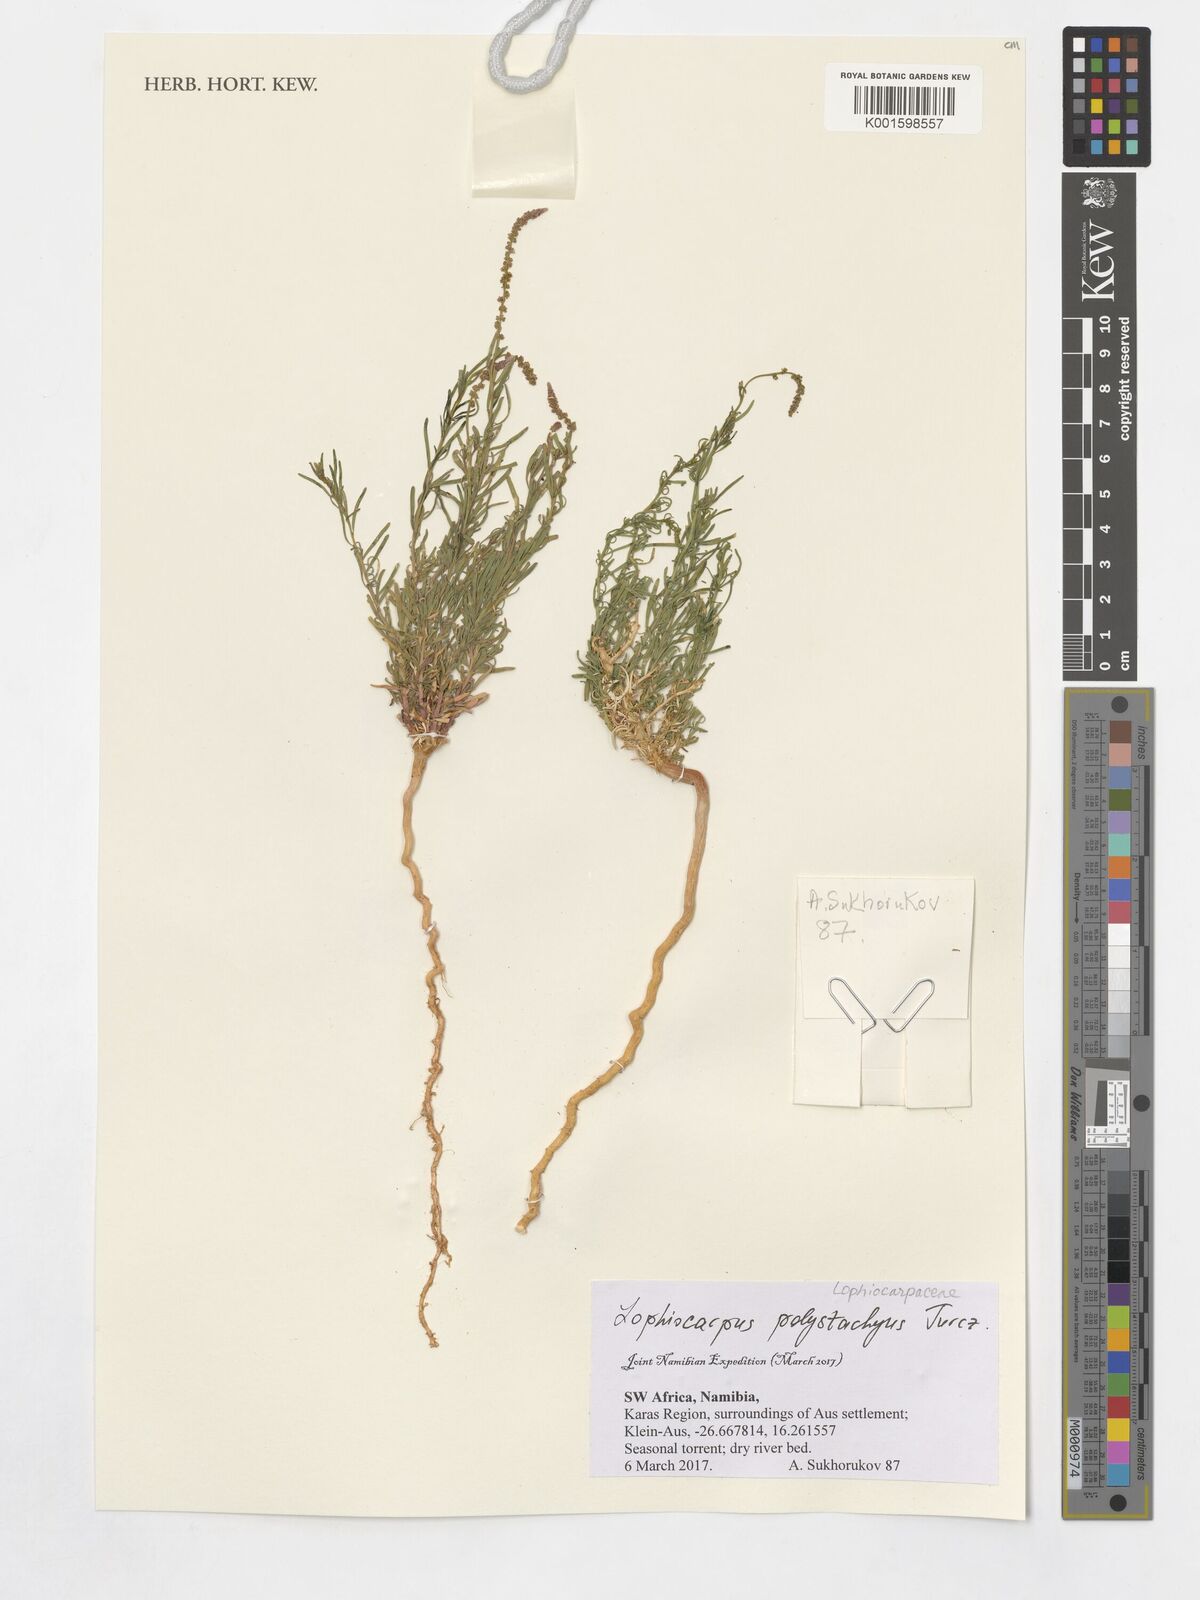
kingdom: Plantae
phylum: Tracheophyta
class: Magnoliopsida
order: Caryophyllales
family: Lophiocarpaceae
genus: Lophiocarpus
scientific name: Lophiocarpus polystachyus
